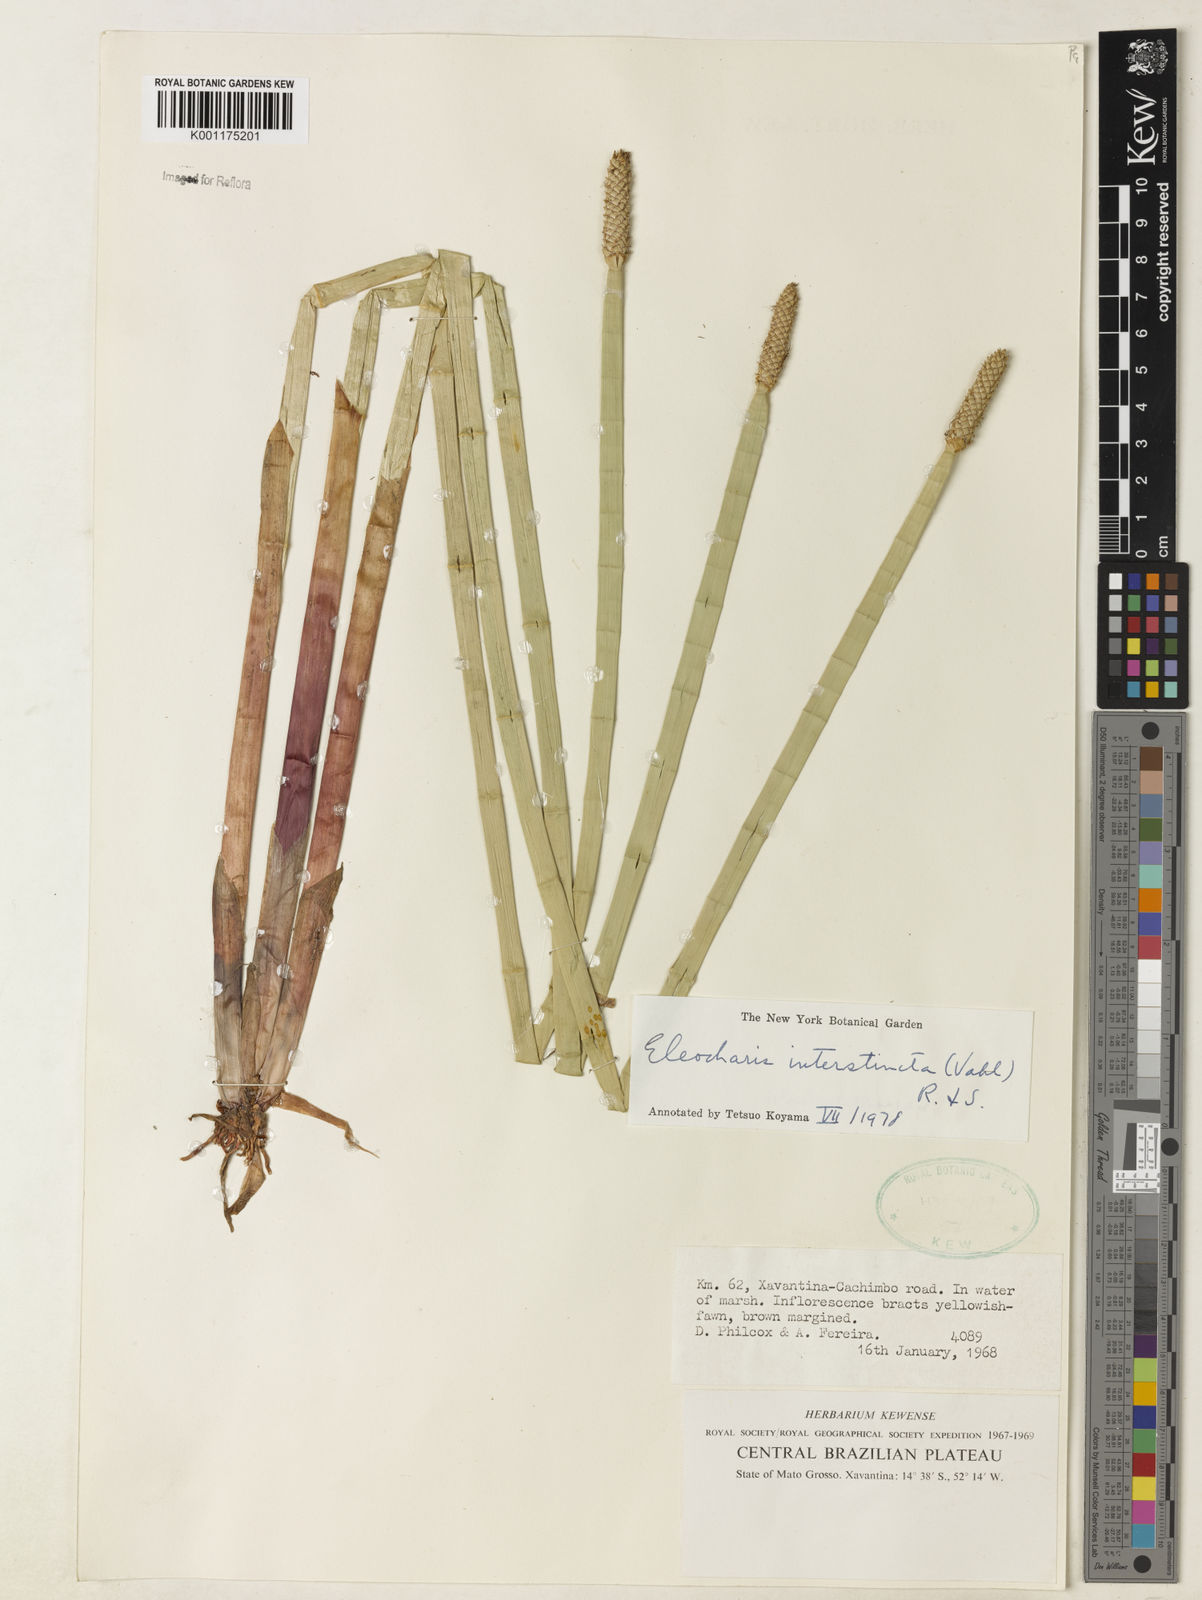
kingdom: Plantae
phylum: Tracheophyta
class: Liliopsida
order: Poales
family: Cyperaceae
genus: Eleocharis
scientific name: Eleocharis interstincta
